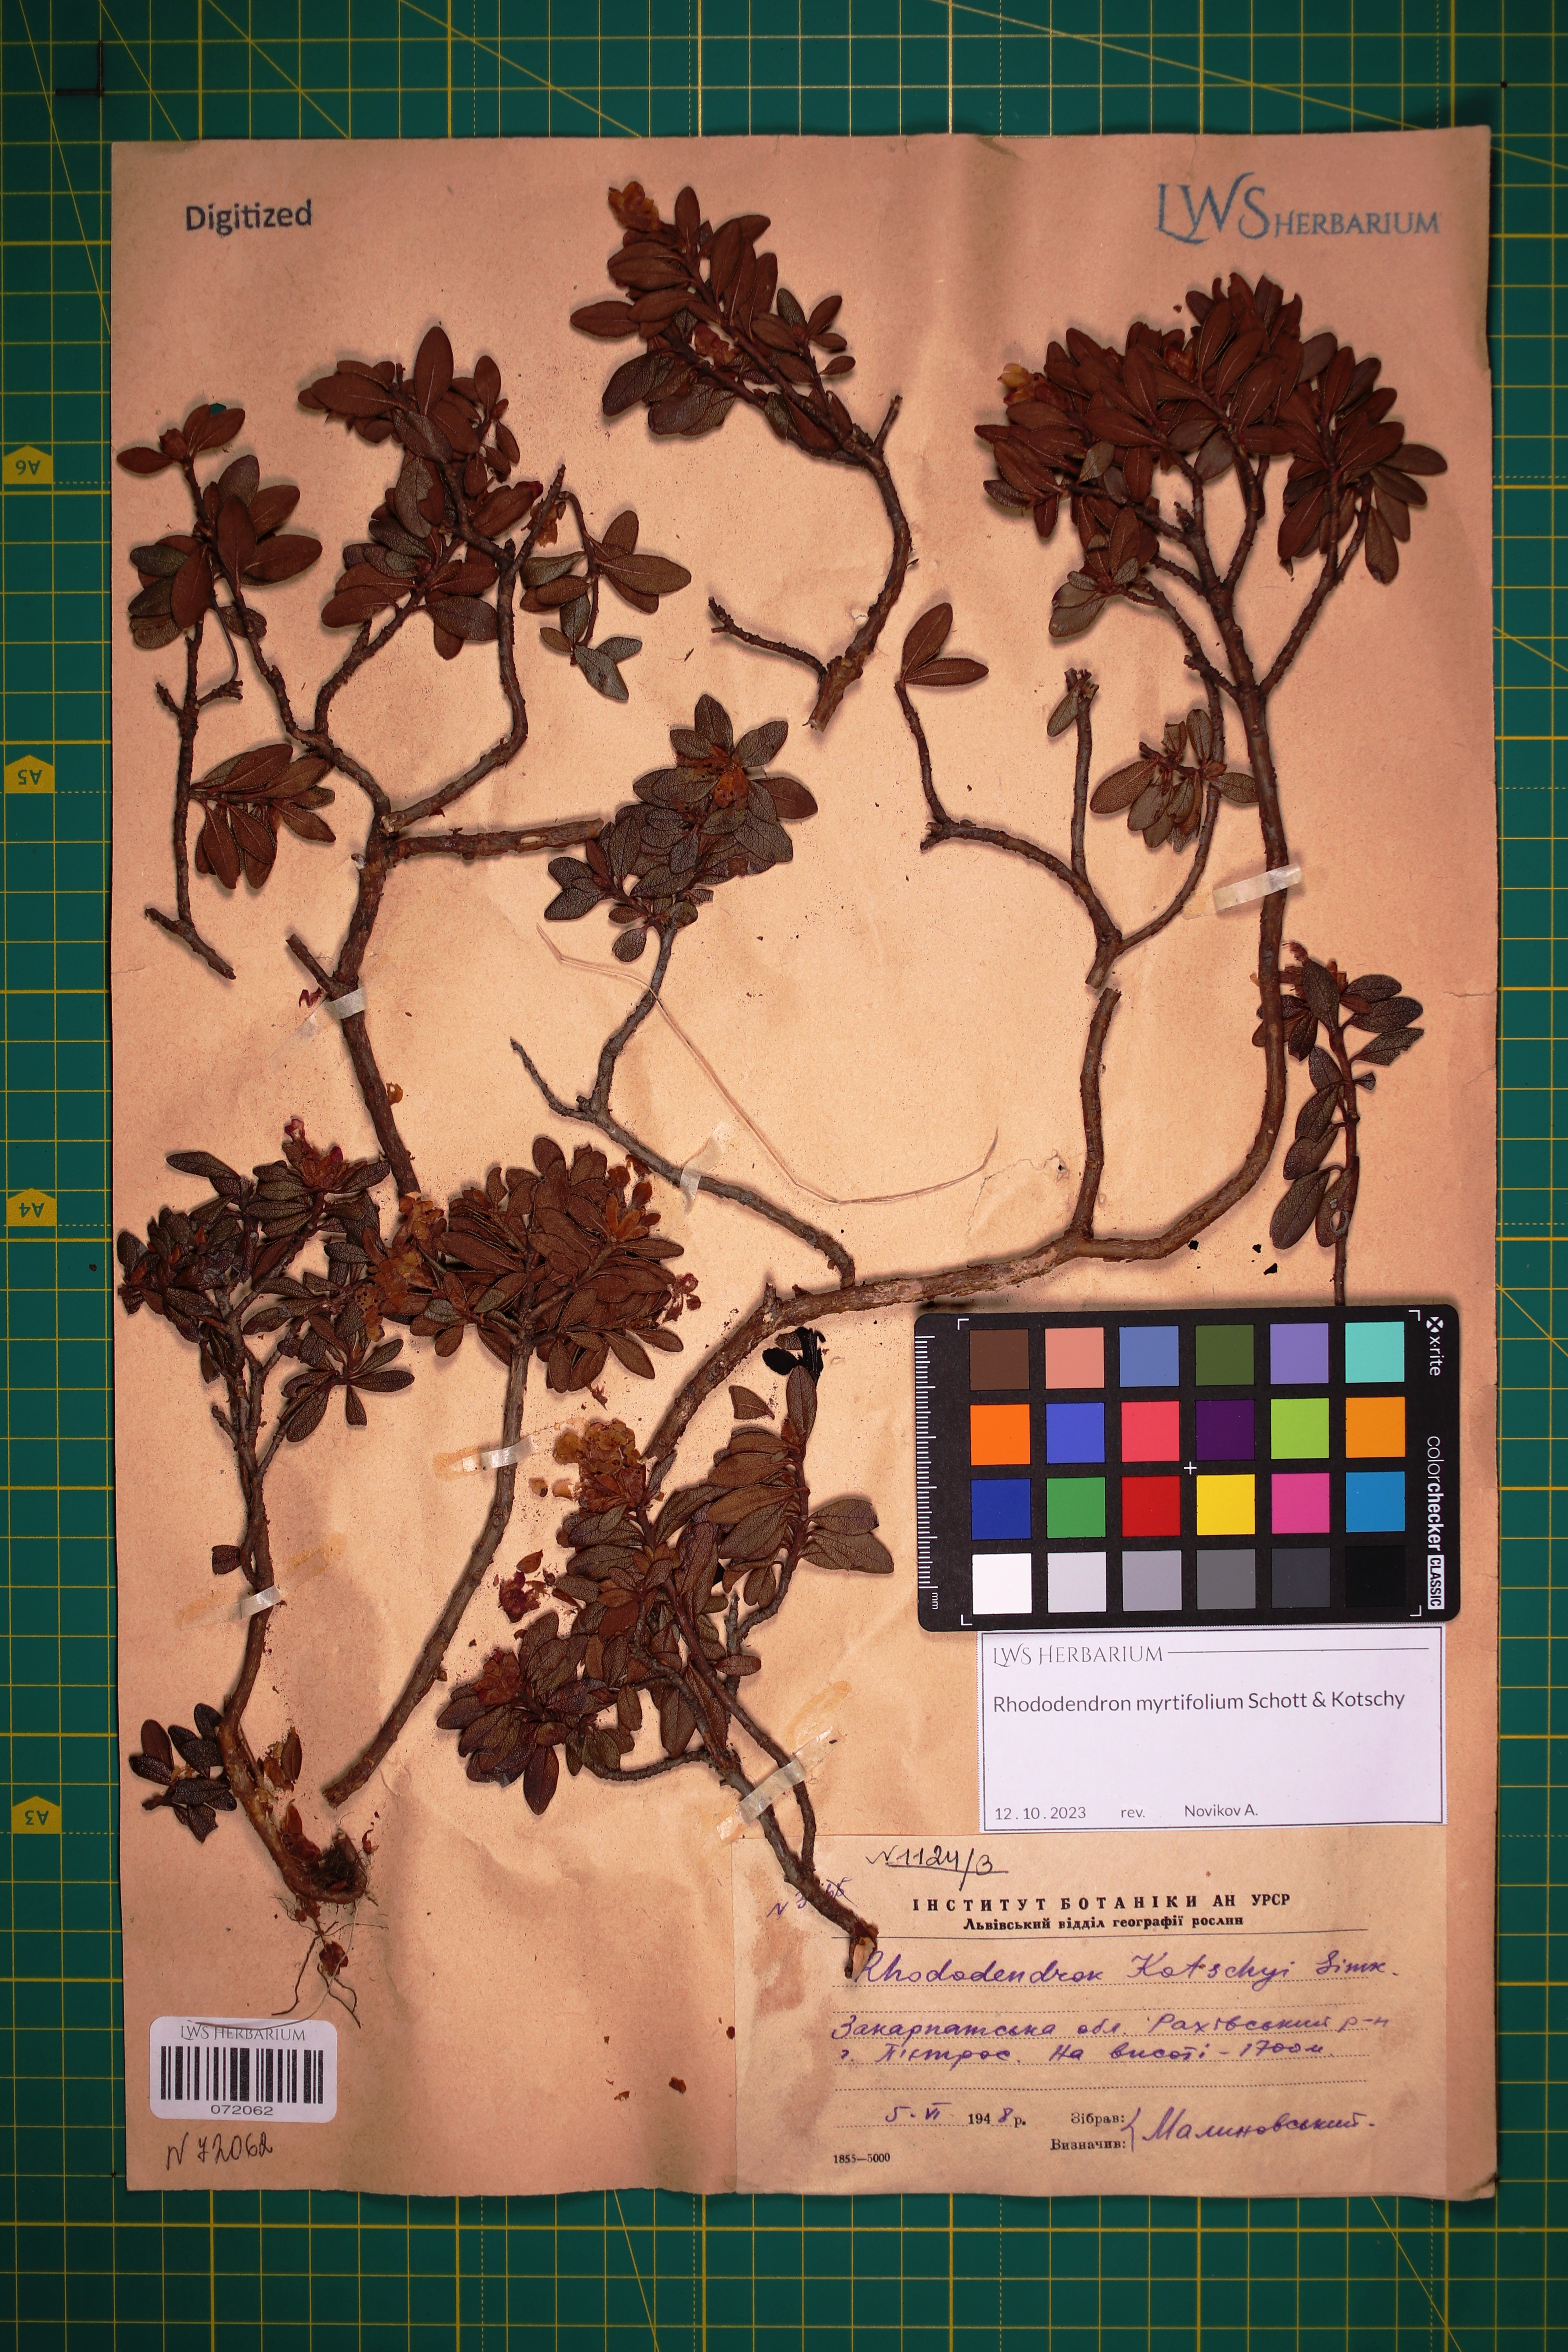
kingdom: Plantae
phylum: Tracheophyta
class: Magnoliopsida
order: Ericales
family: Ericaceae
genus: Rhododendron
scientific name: Rhododendron kotschyi
